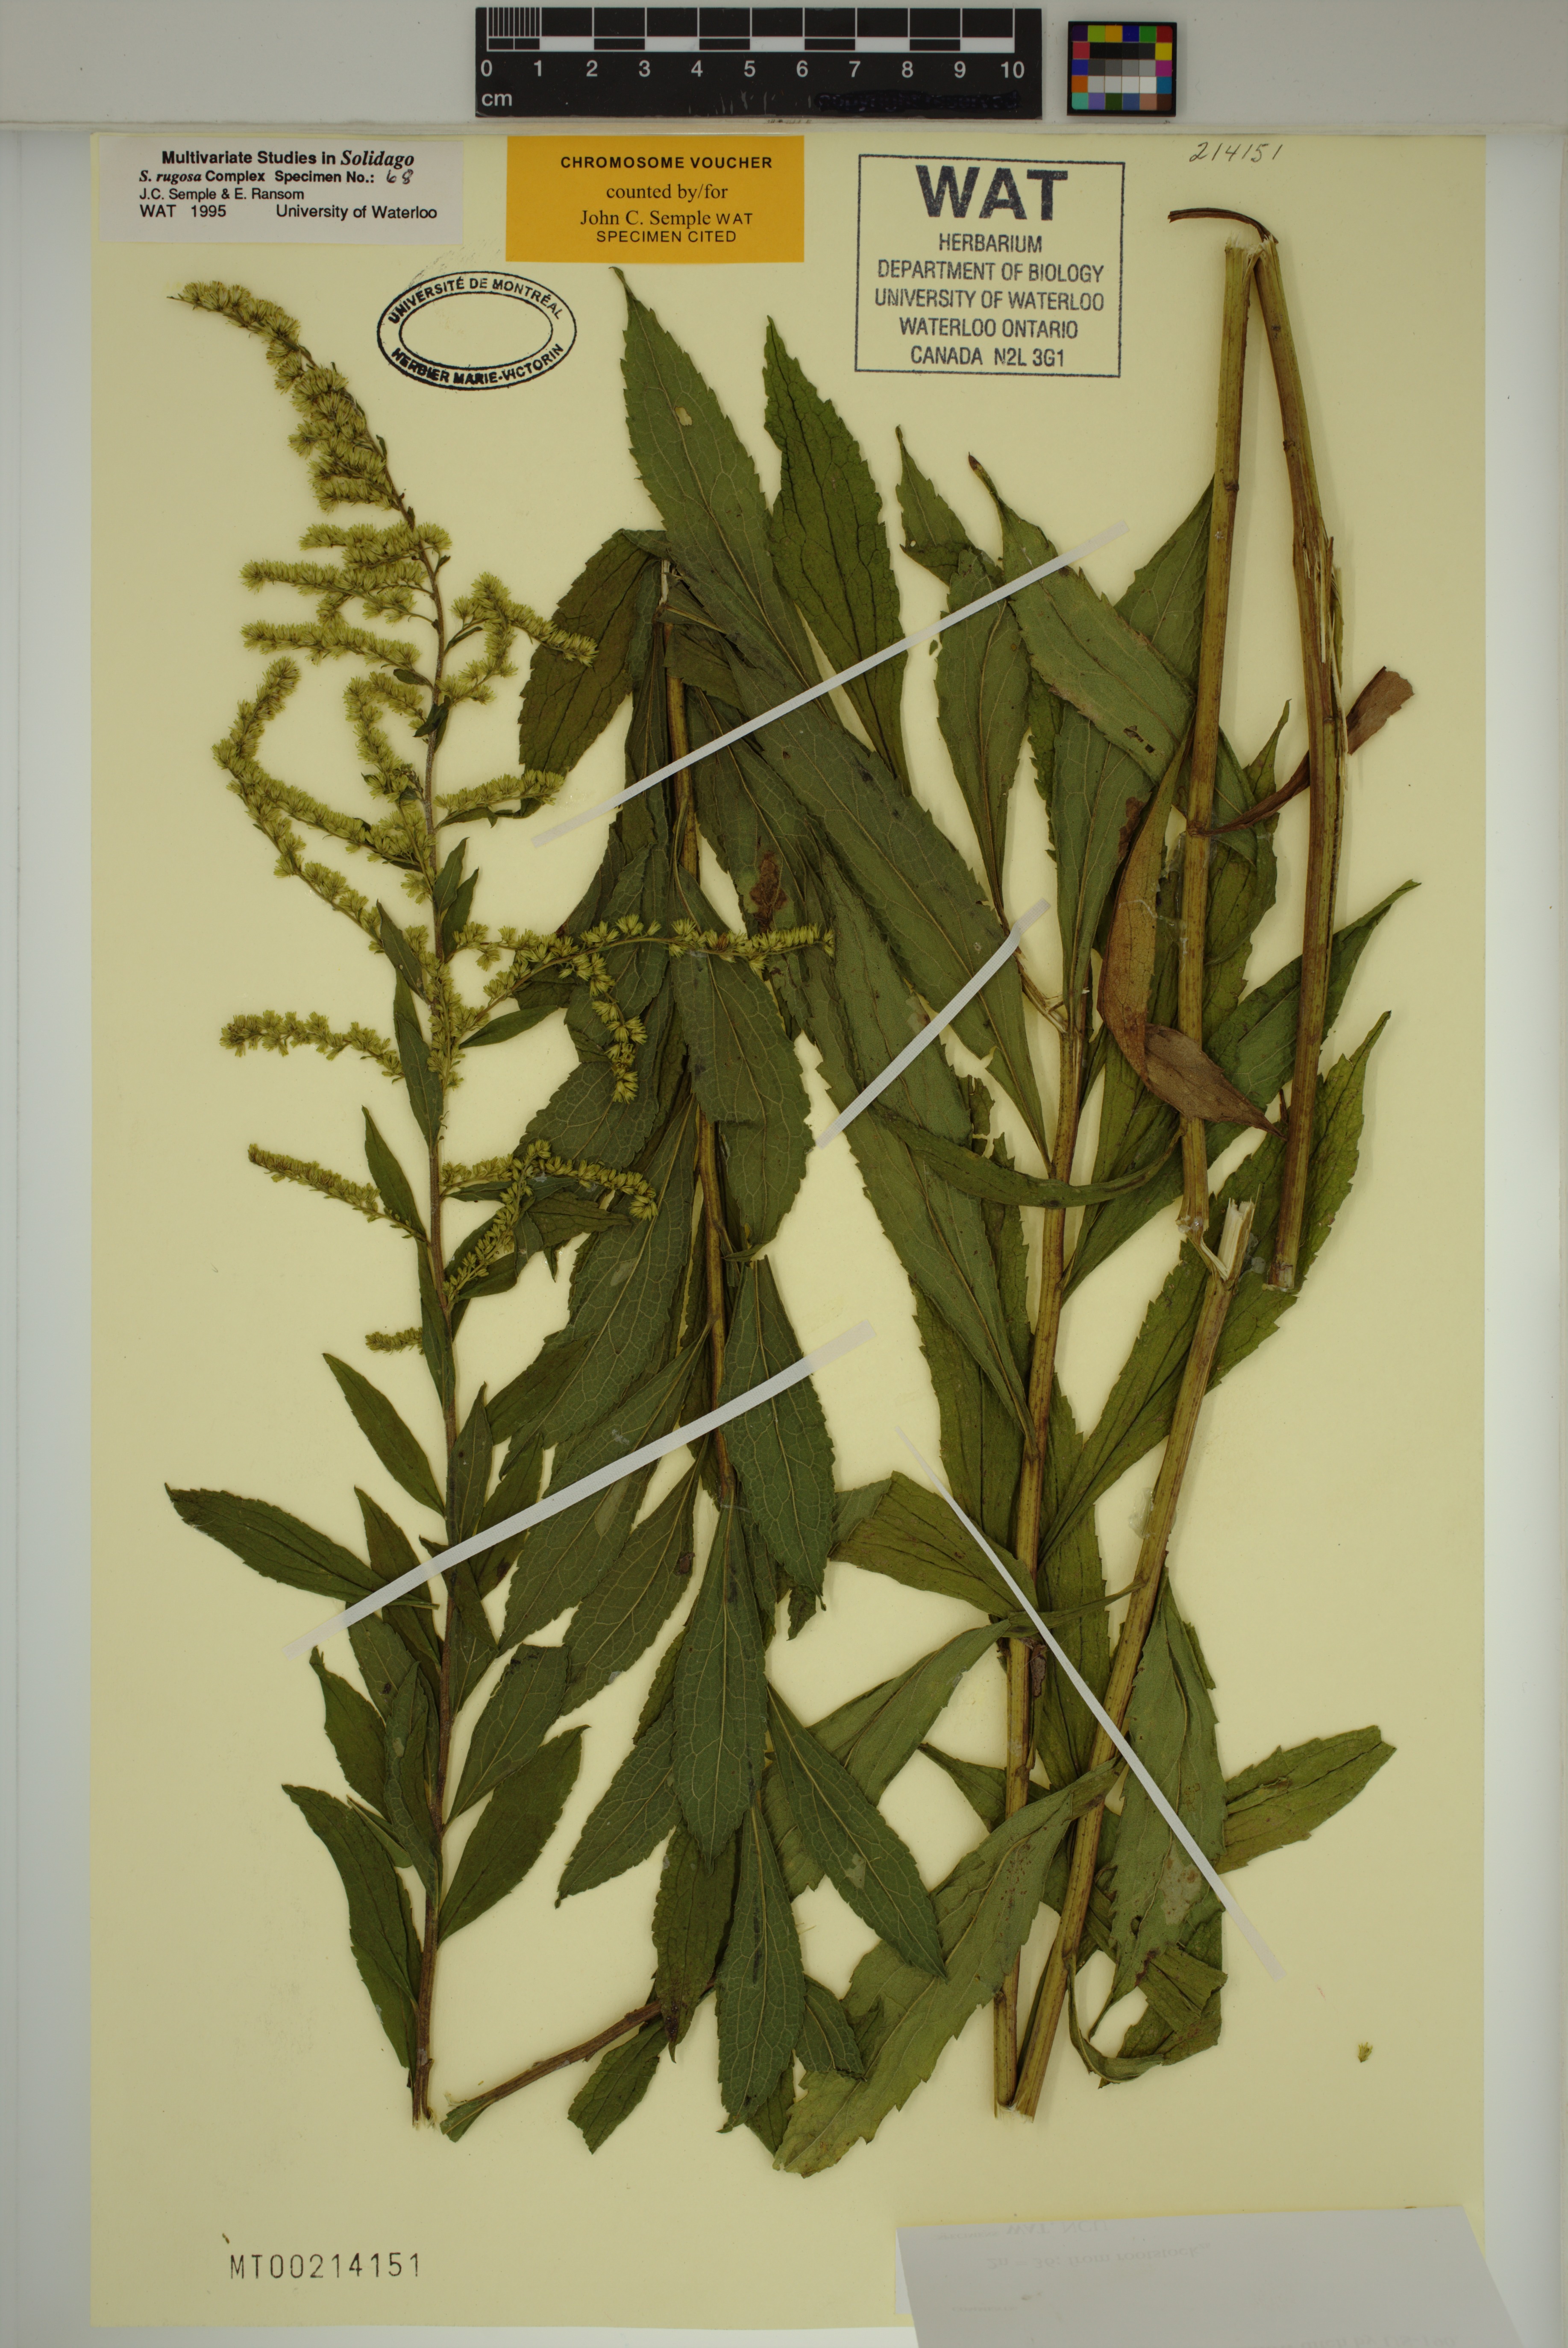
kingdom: Plantae
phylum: Tracheophyta
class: Magnoliopsida
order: Asterales
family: Asteraceae
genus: Solidago
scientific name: Solidago rugosa
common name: Rough-stemmed goldenrod
